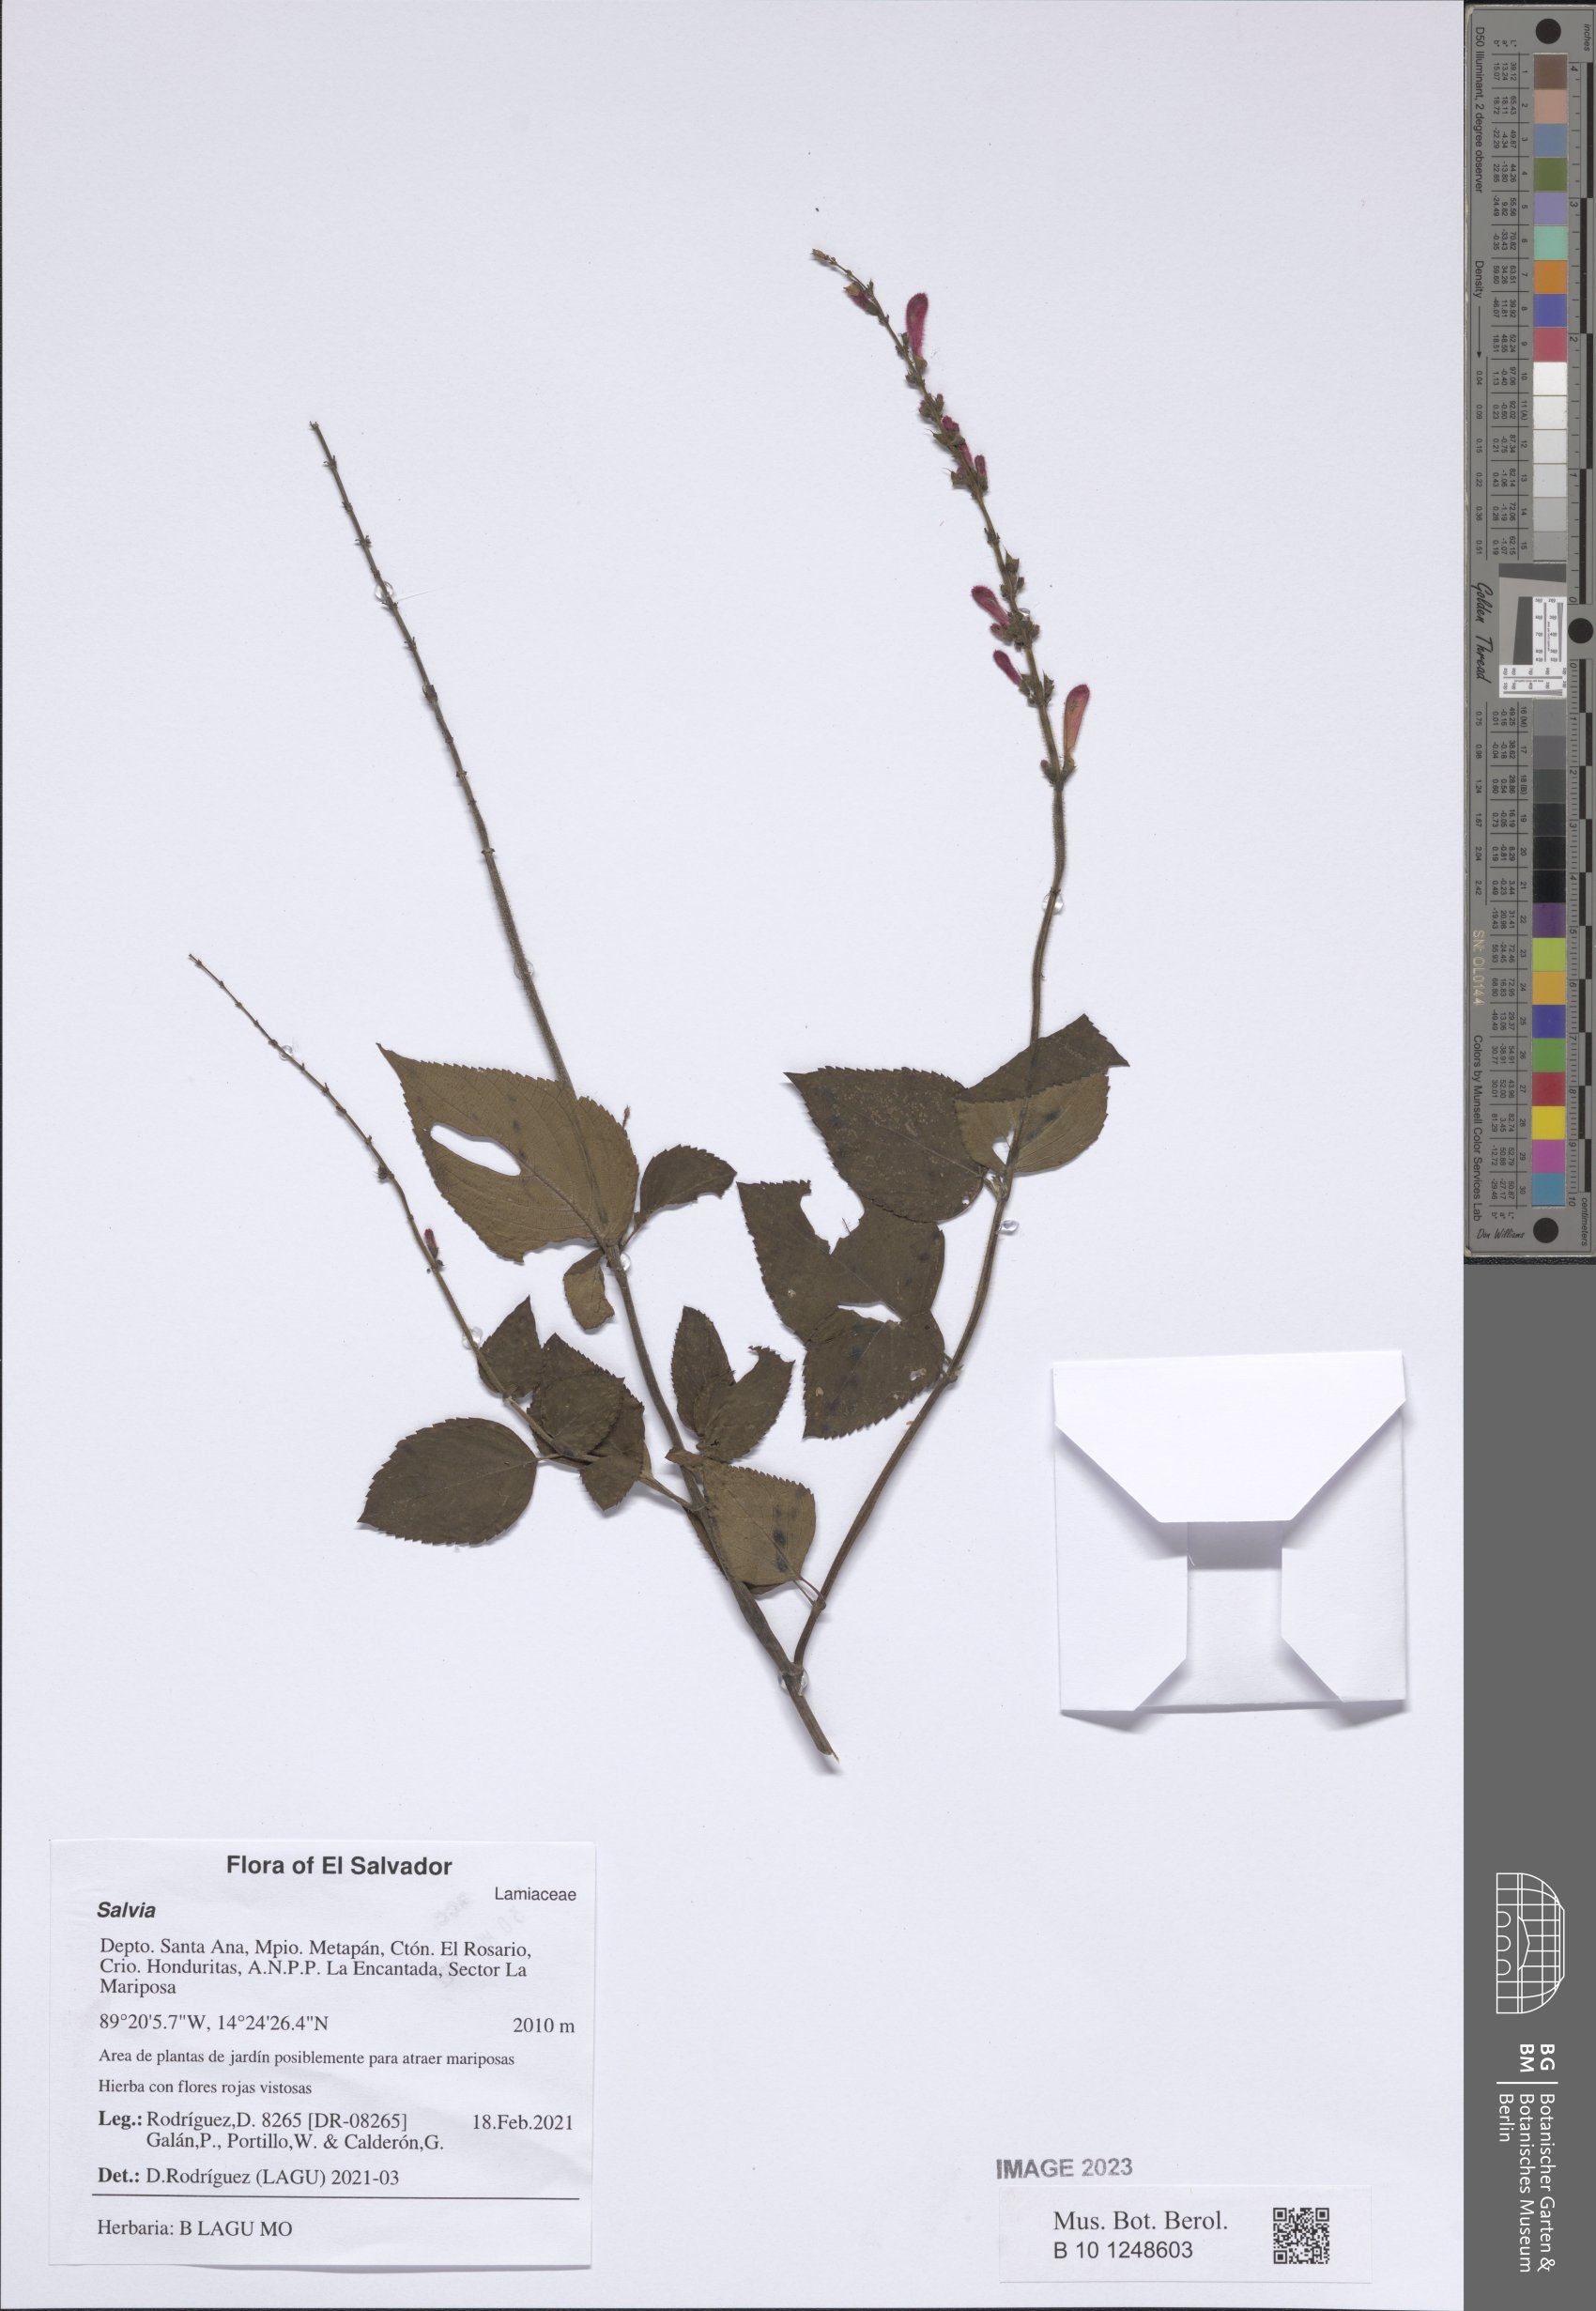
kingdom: Plantae
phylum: Tracheophyta
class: Magnoliopsida
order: Lamiales
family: Lamiaceae
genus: Salvia
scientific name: Salvia
